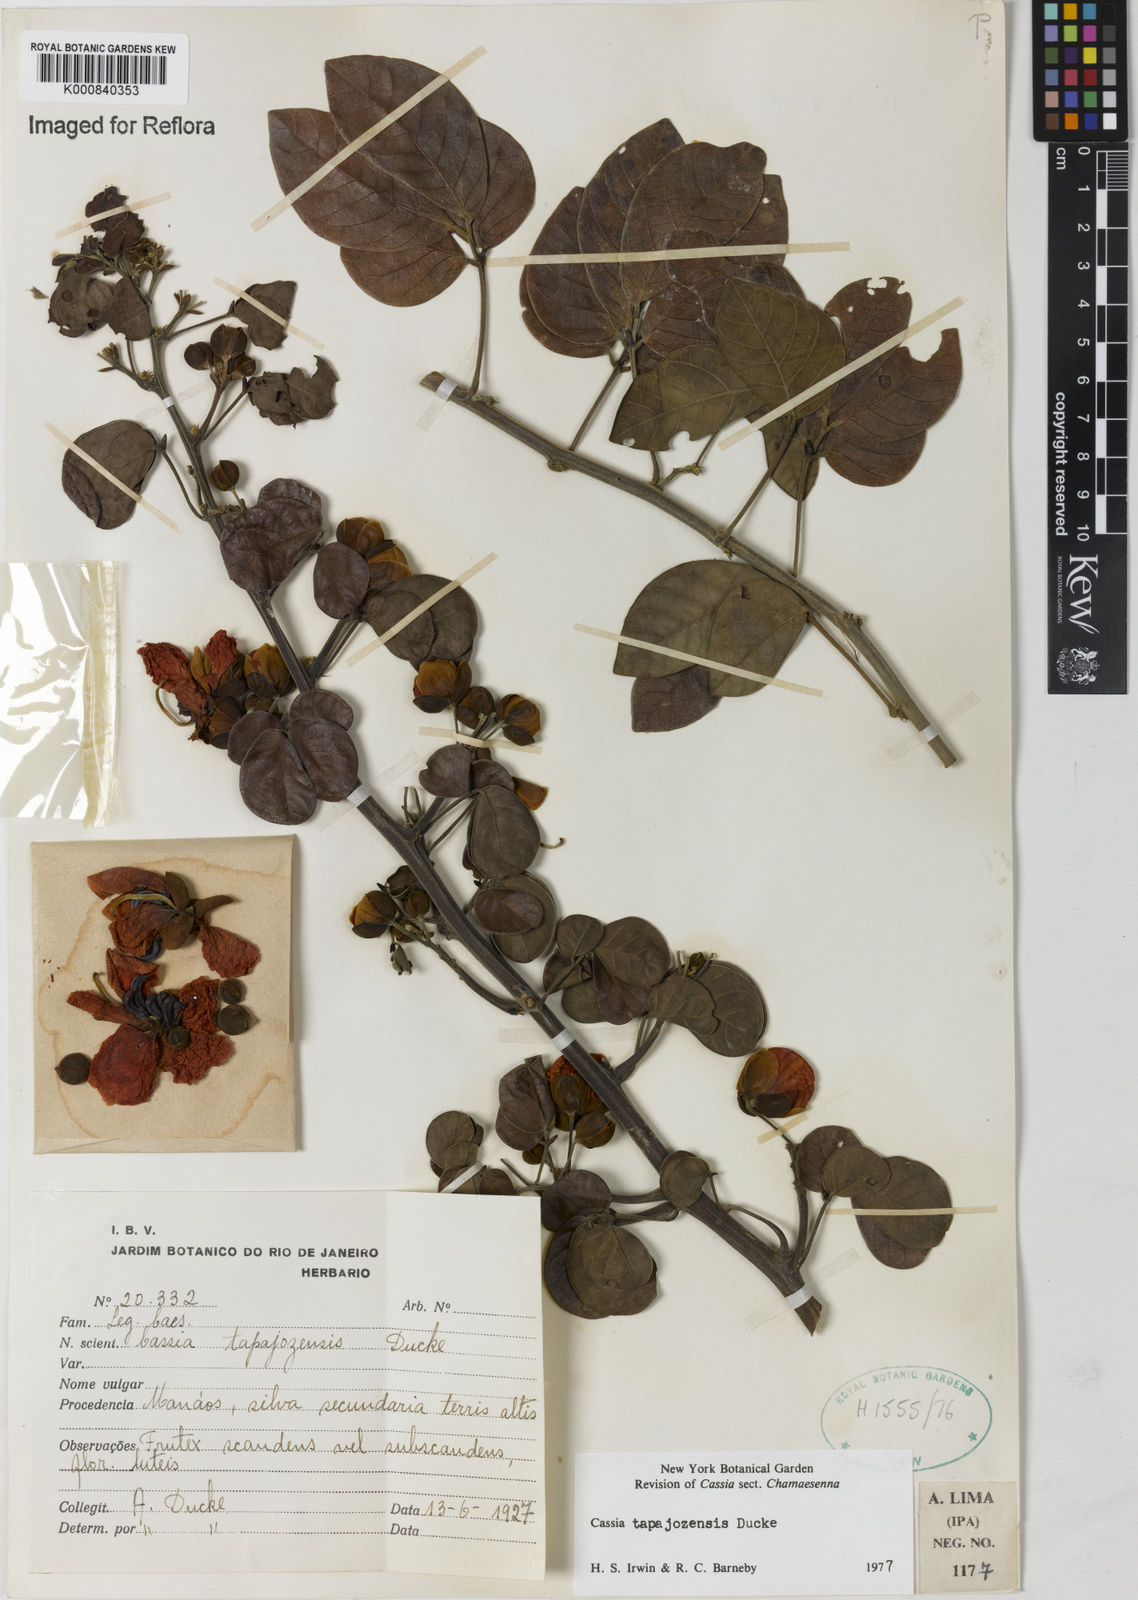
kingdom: Plantae
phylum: Tracheophyta
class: Magnoliopsida
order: Fabales
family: Fabaceae
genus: Senna
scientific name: Senna tapajozensis
